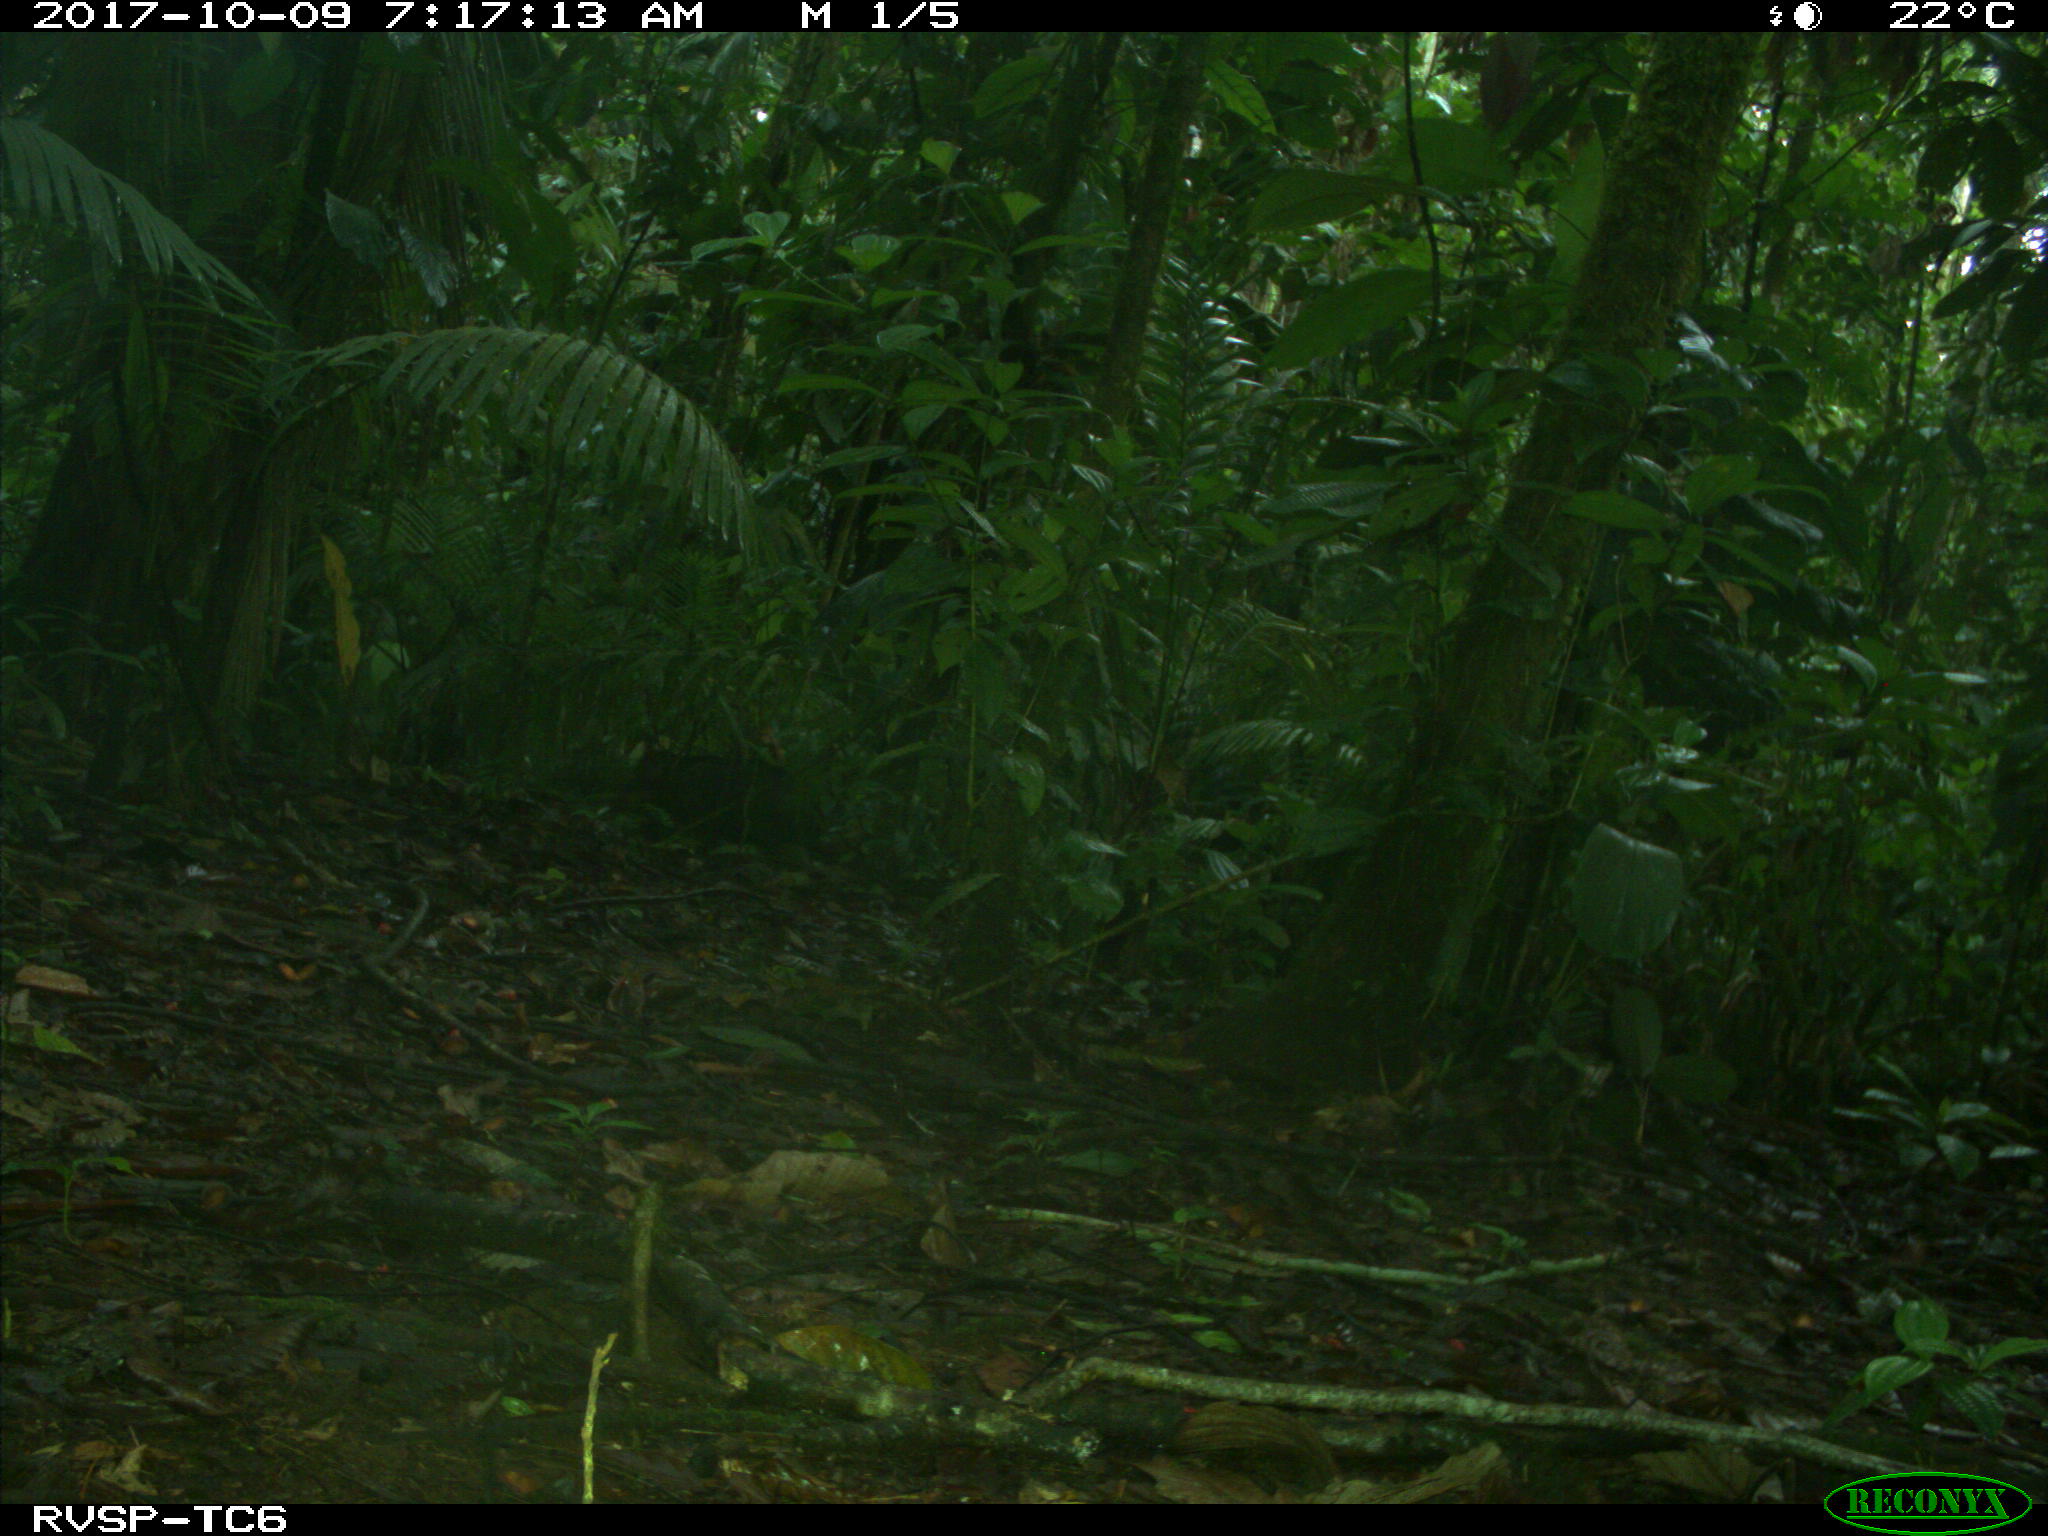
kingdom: Animalia
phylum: Chordata
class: Mammalia
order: Artiodactyla
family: Tayassuidae
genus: Tayassu
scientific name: Tayassu pecari
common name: White-lipped peccary
